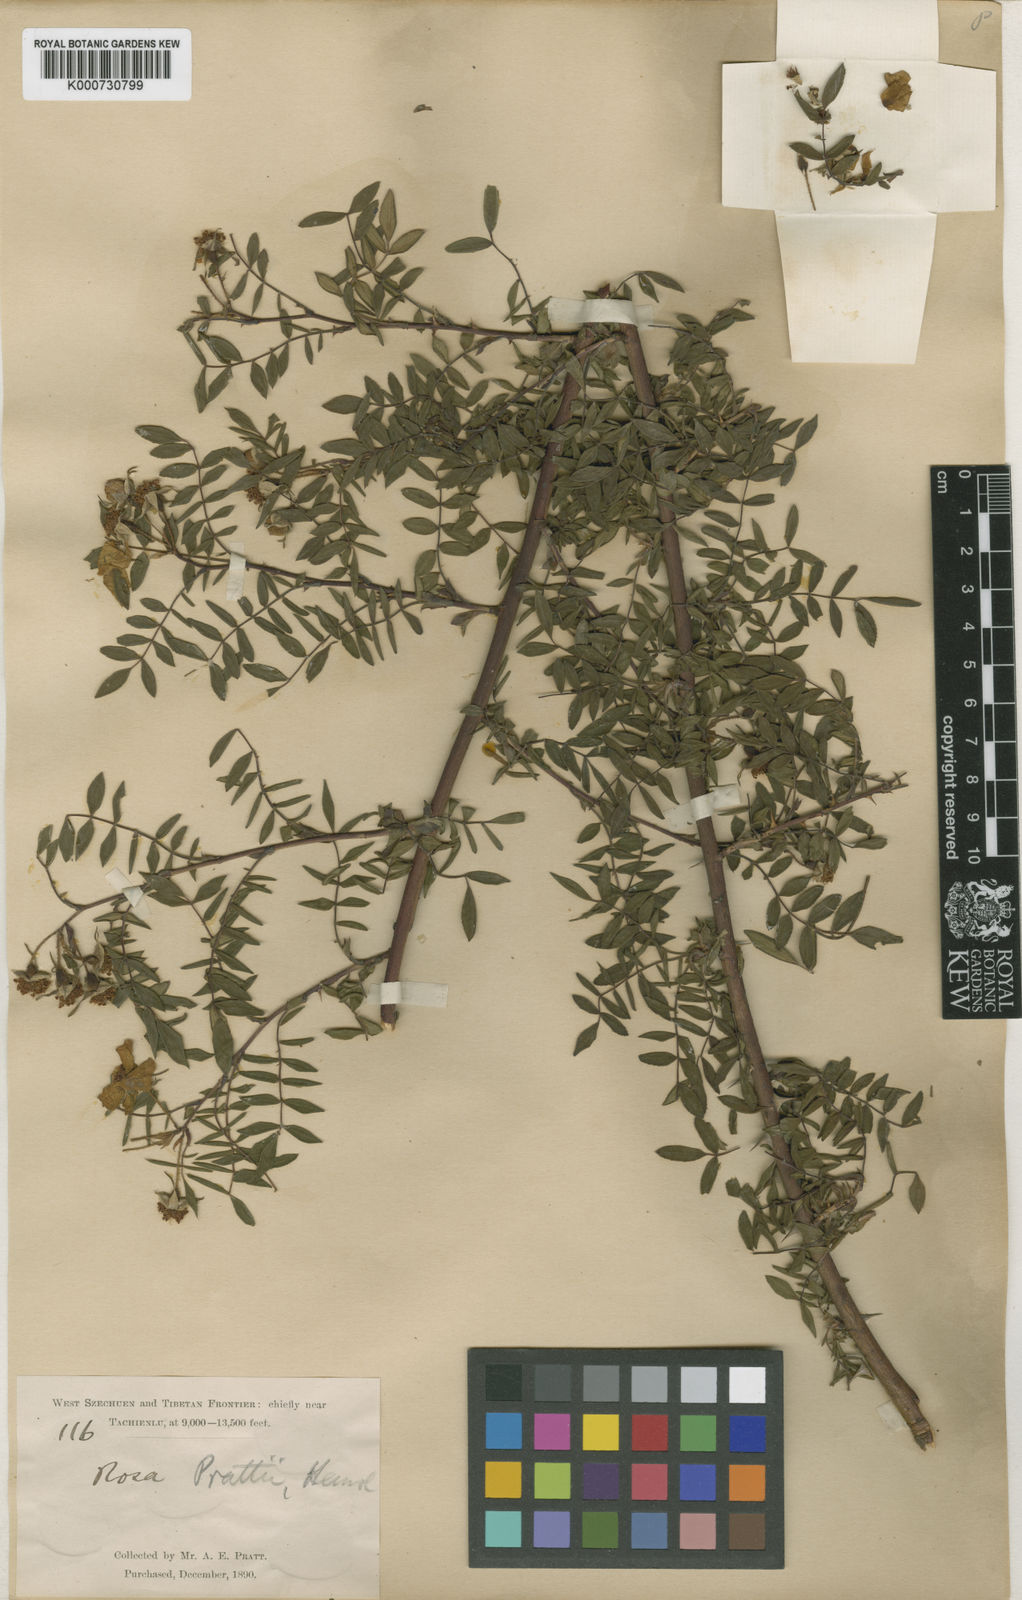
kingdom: Plantae
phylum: Tracheophyta
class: Magnoliopsida
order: Rosales
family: Rosaceae
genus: Rosa
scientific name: Rosa prattii
